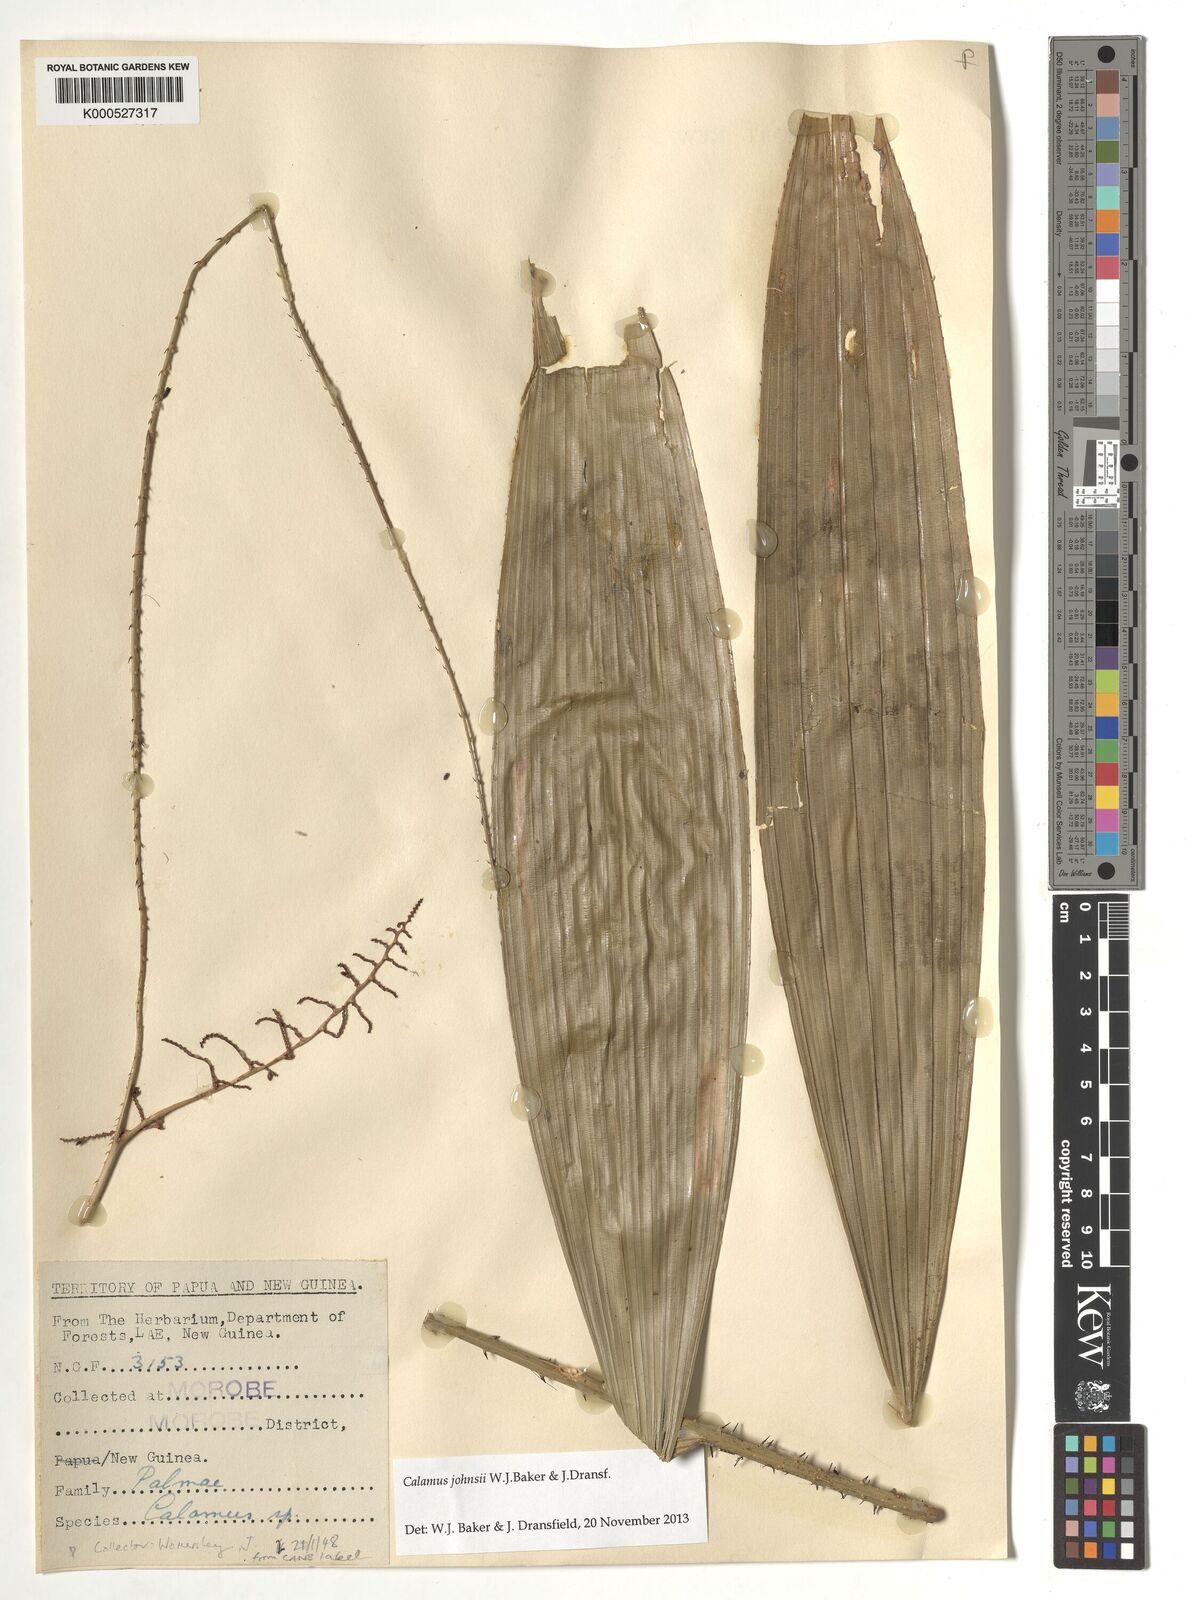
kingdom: Plantae
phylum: Tracheophyta
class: Liliopsida
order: Arecales
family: Arecaceae
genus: Calamus
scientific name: Calamus johnsii
